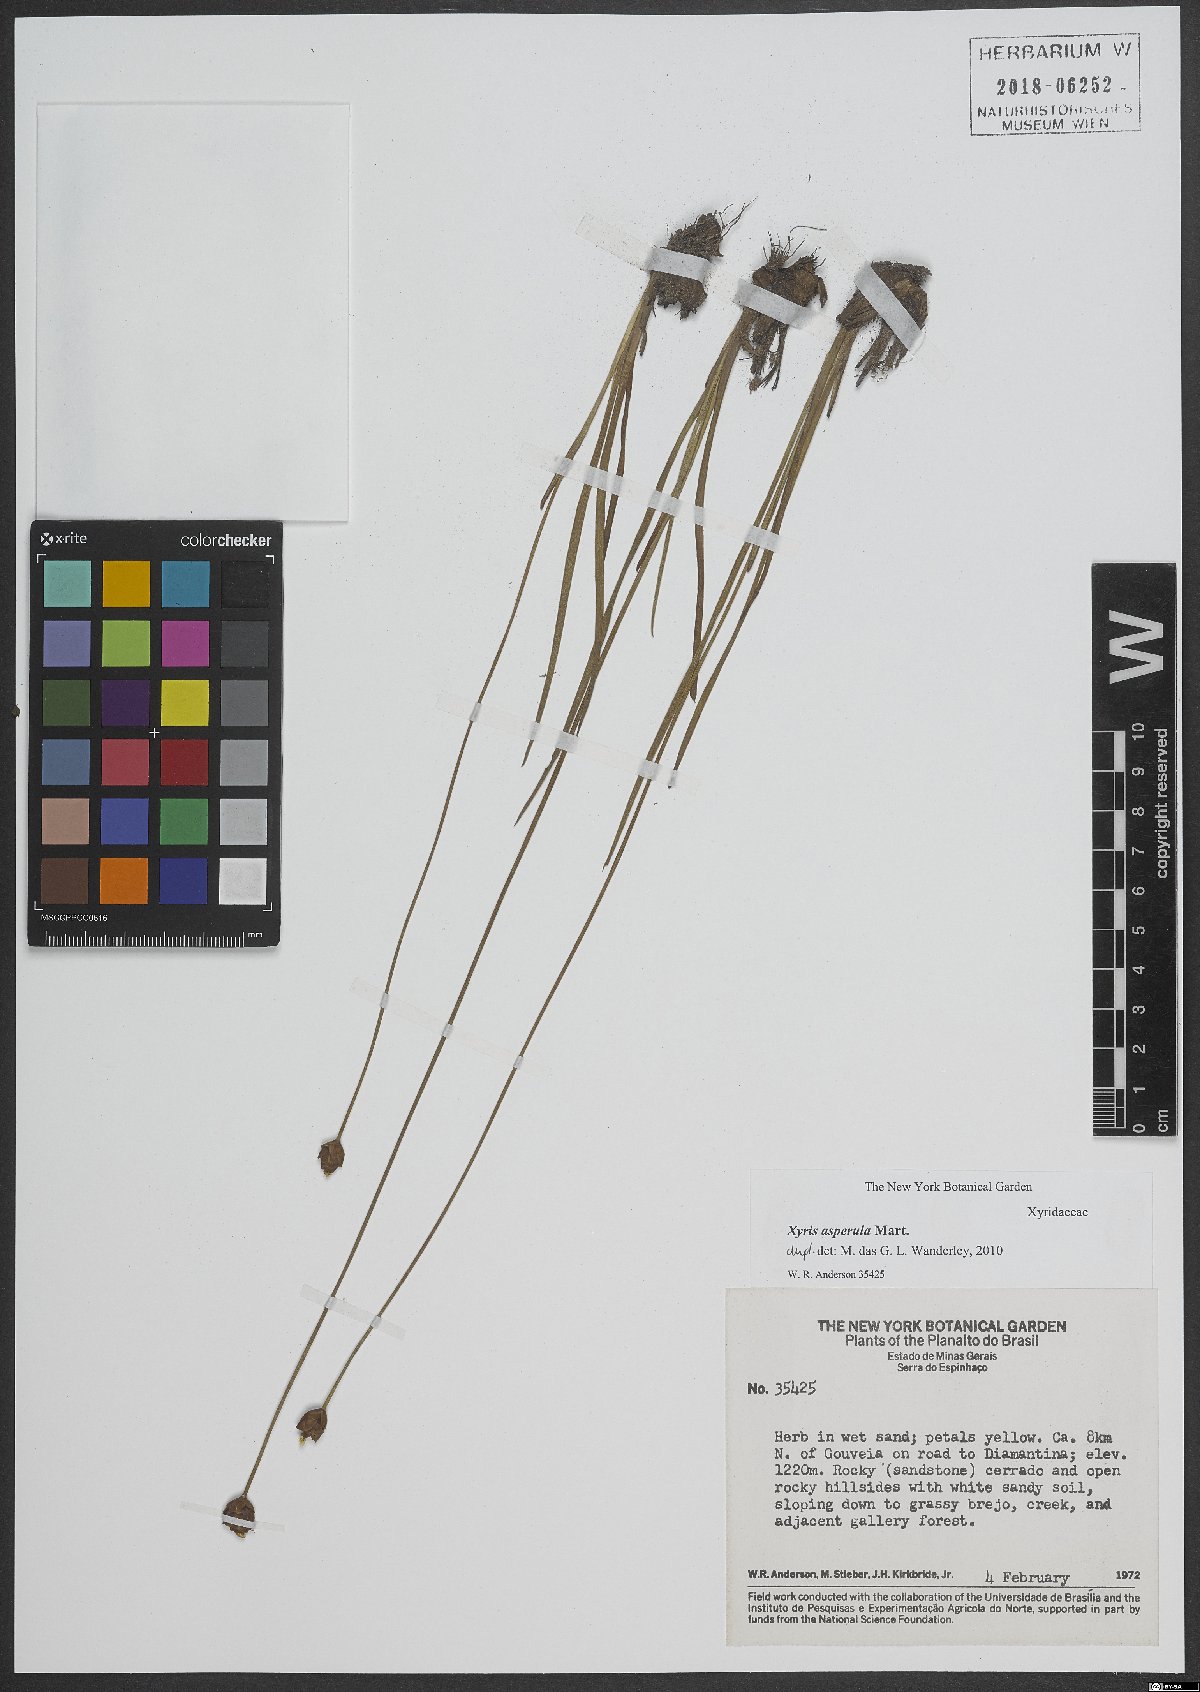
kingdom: Plantae
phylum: Tracheophyta
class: Liliopsida
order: Poales
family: Xyridaceae
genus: Xyris
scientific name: Xyris asperula
